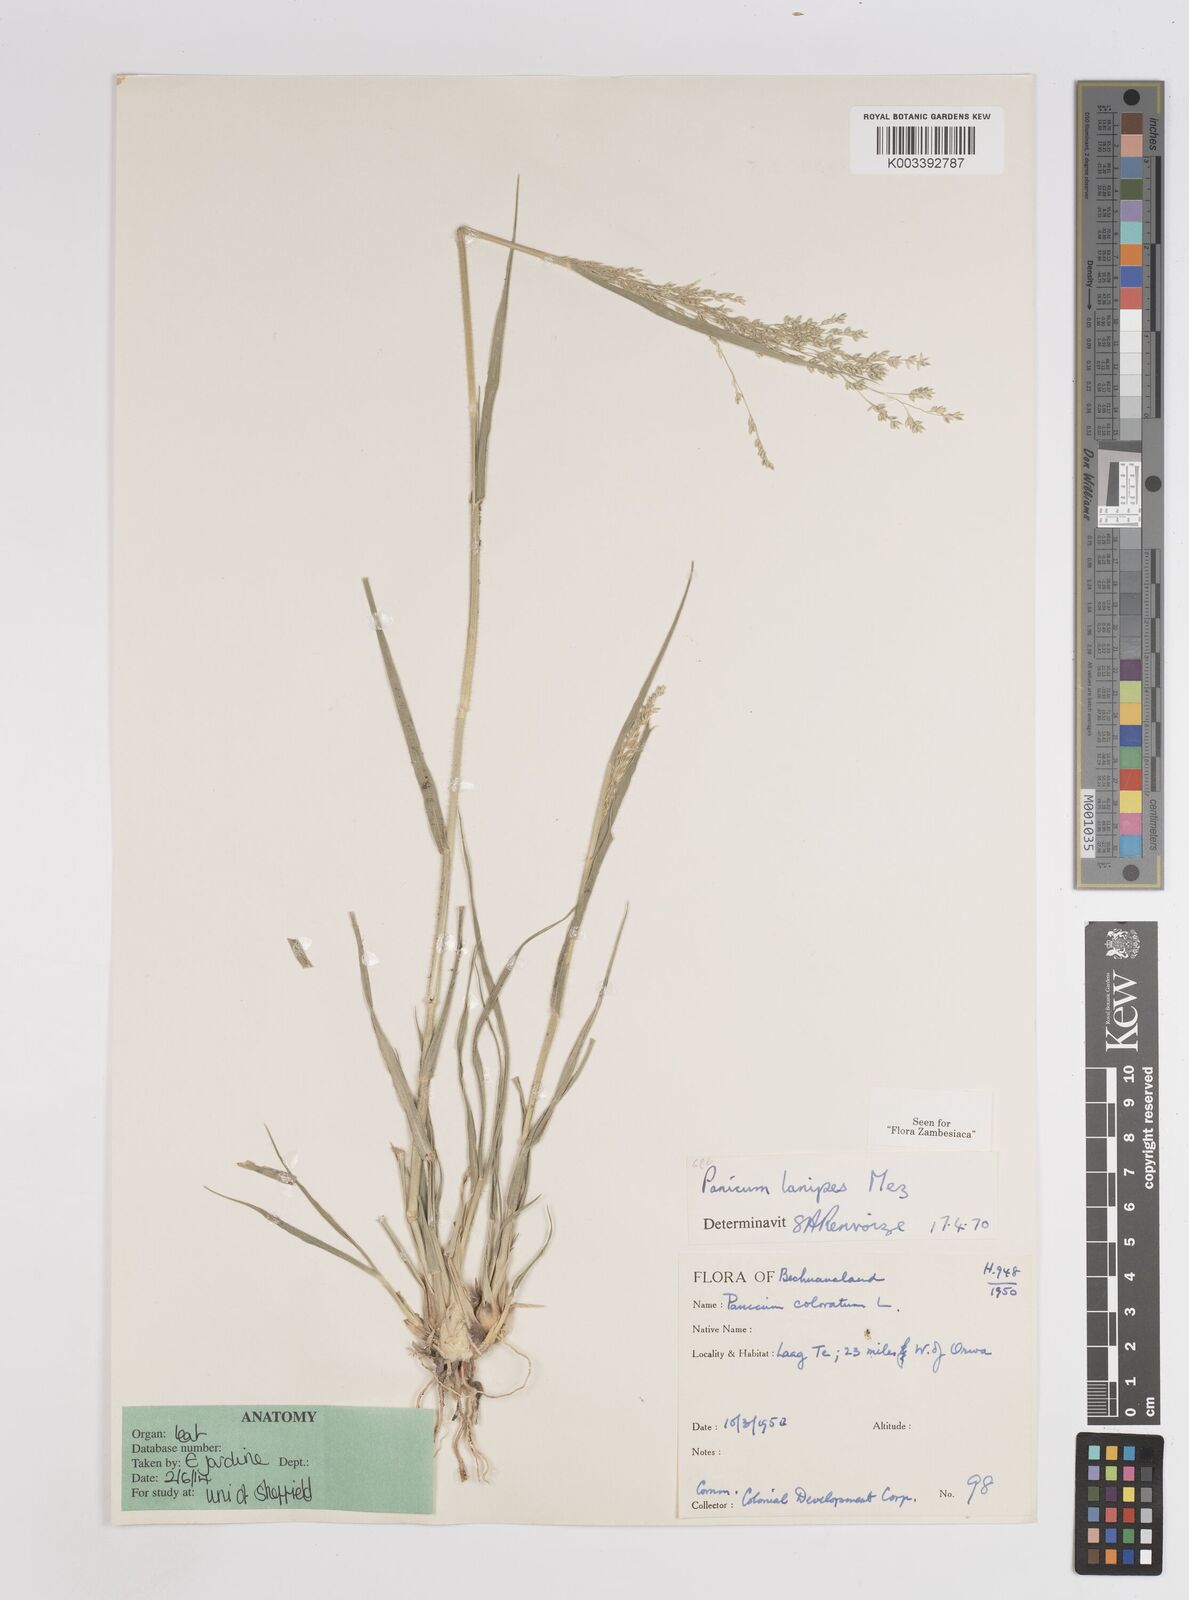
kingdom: Plantae
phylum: Tracheophyta
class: Liliopsida
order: Poales
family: Poaceae
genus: Panicum
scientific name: Panicum lanipes
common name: Wolvoet panicum
